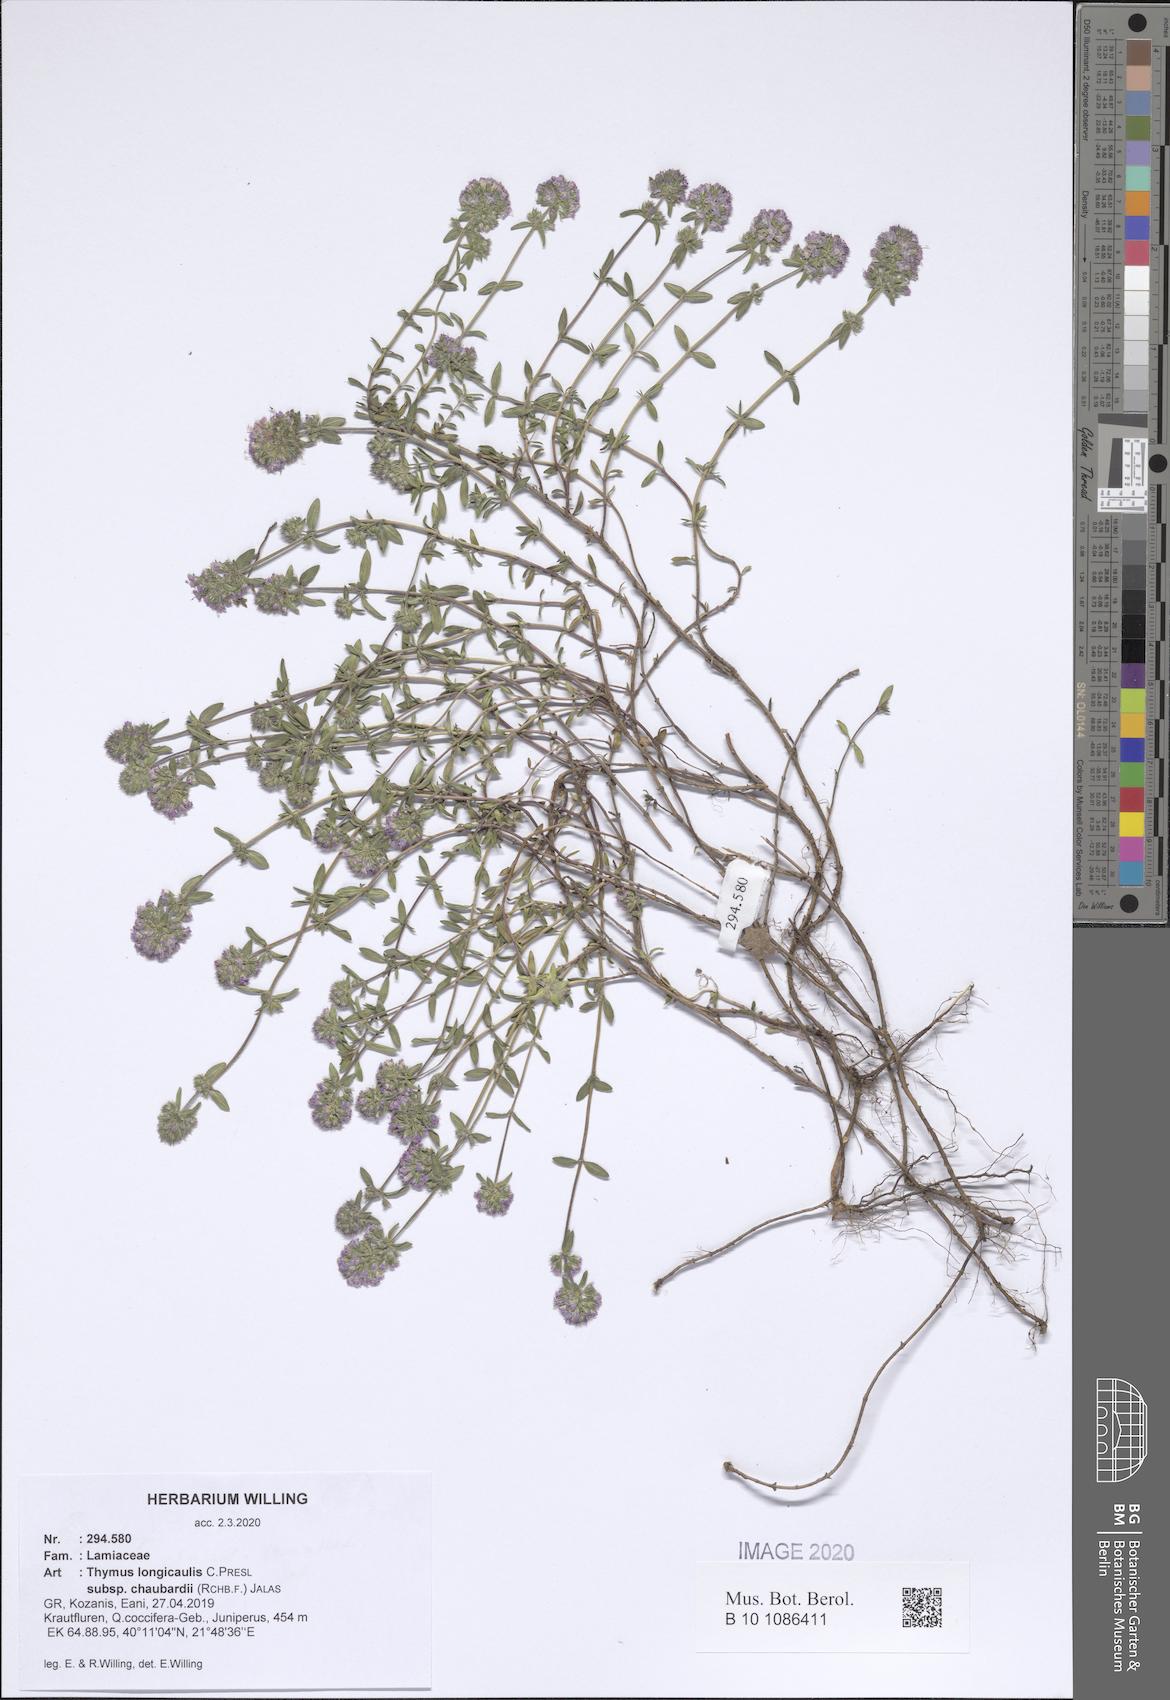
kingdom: Plantae
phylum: Tracheophyta
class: Magnoliopsida
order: Lamiales
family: Lamiaceae
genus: Thymus
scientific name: Thymus longicaulis
